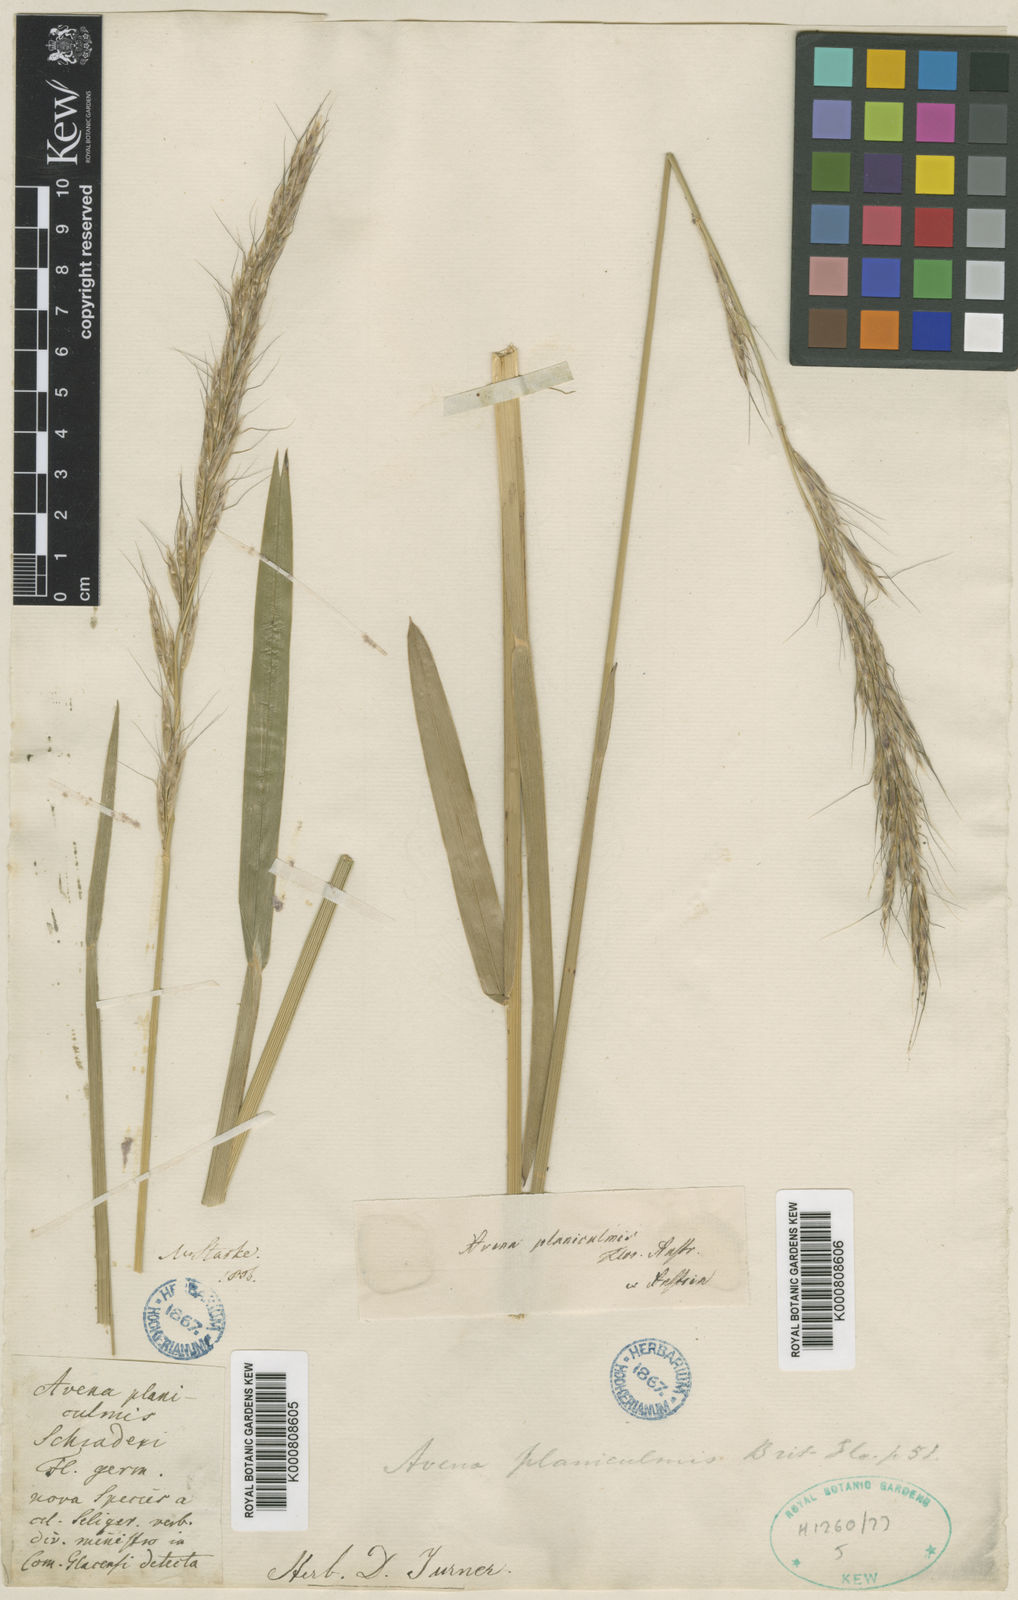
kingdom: Plantae
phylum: Tracheophyta
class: Liliopsida
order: Poales
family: Poaceae
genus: Helictochloa
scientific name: Helictochloa planiculmis
